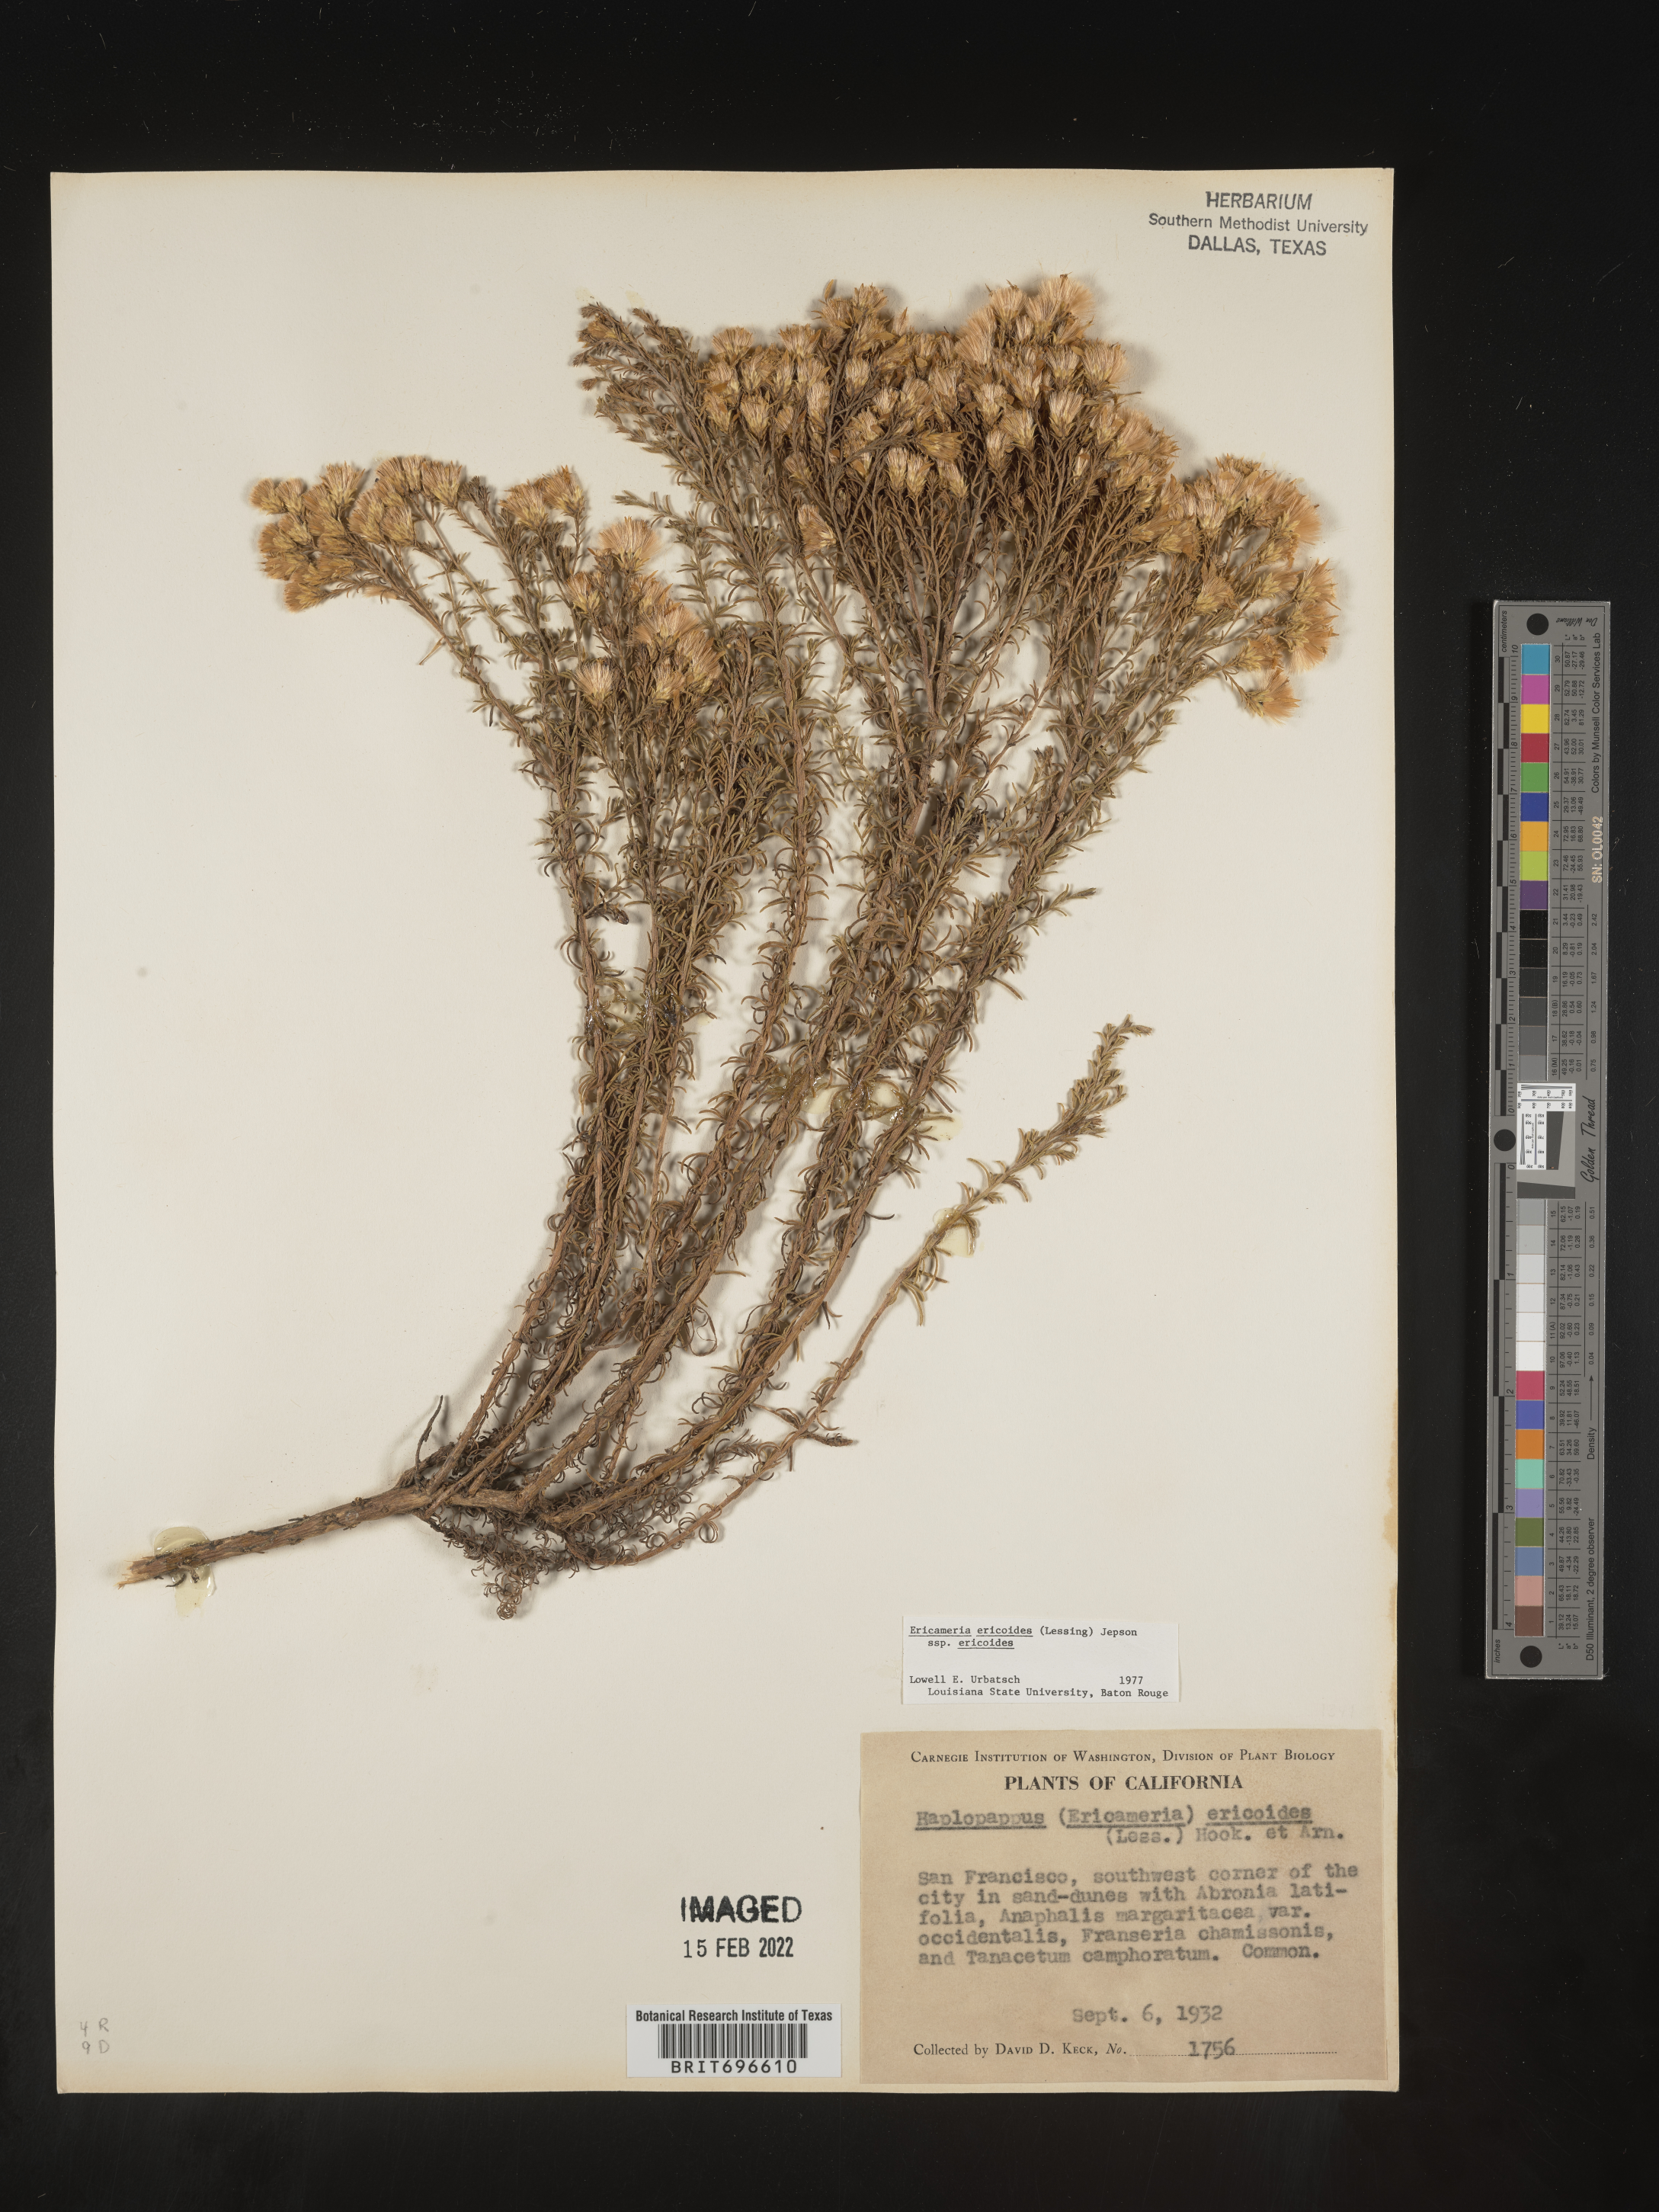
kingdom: Plantae
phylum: Tracheophyta
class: Magnoliopsida
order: Asterales
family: Asteraceae
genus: Ericameria
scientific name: Ericameria ericoides
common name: California goldenbush
